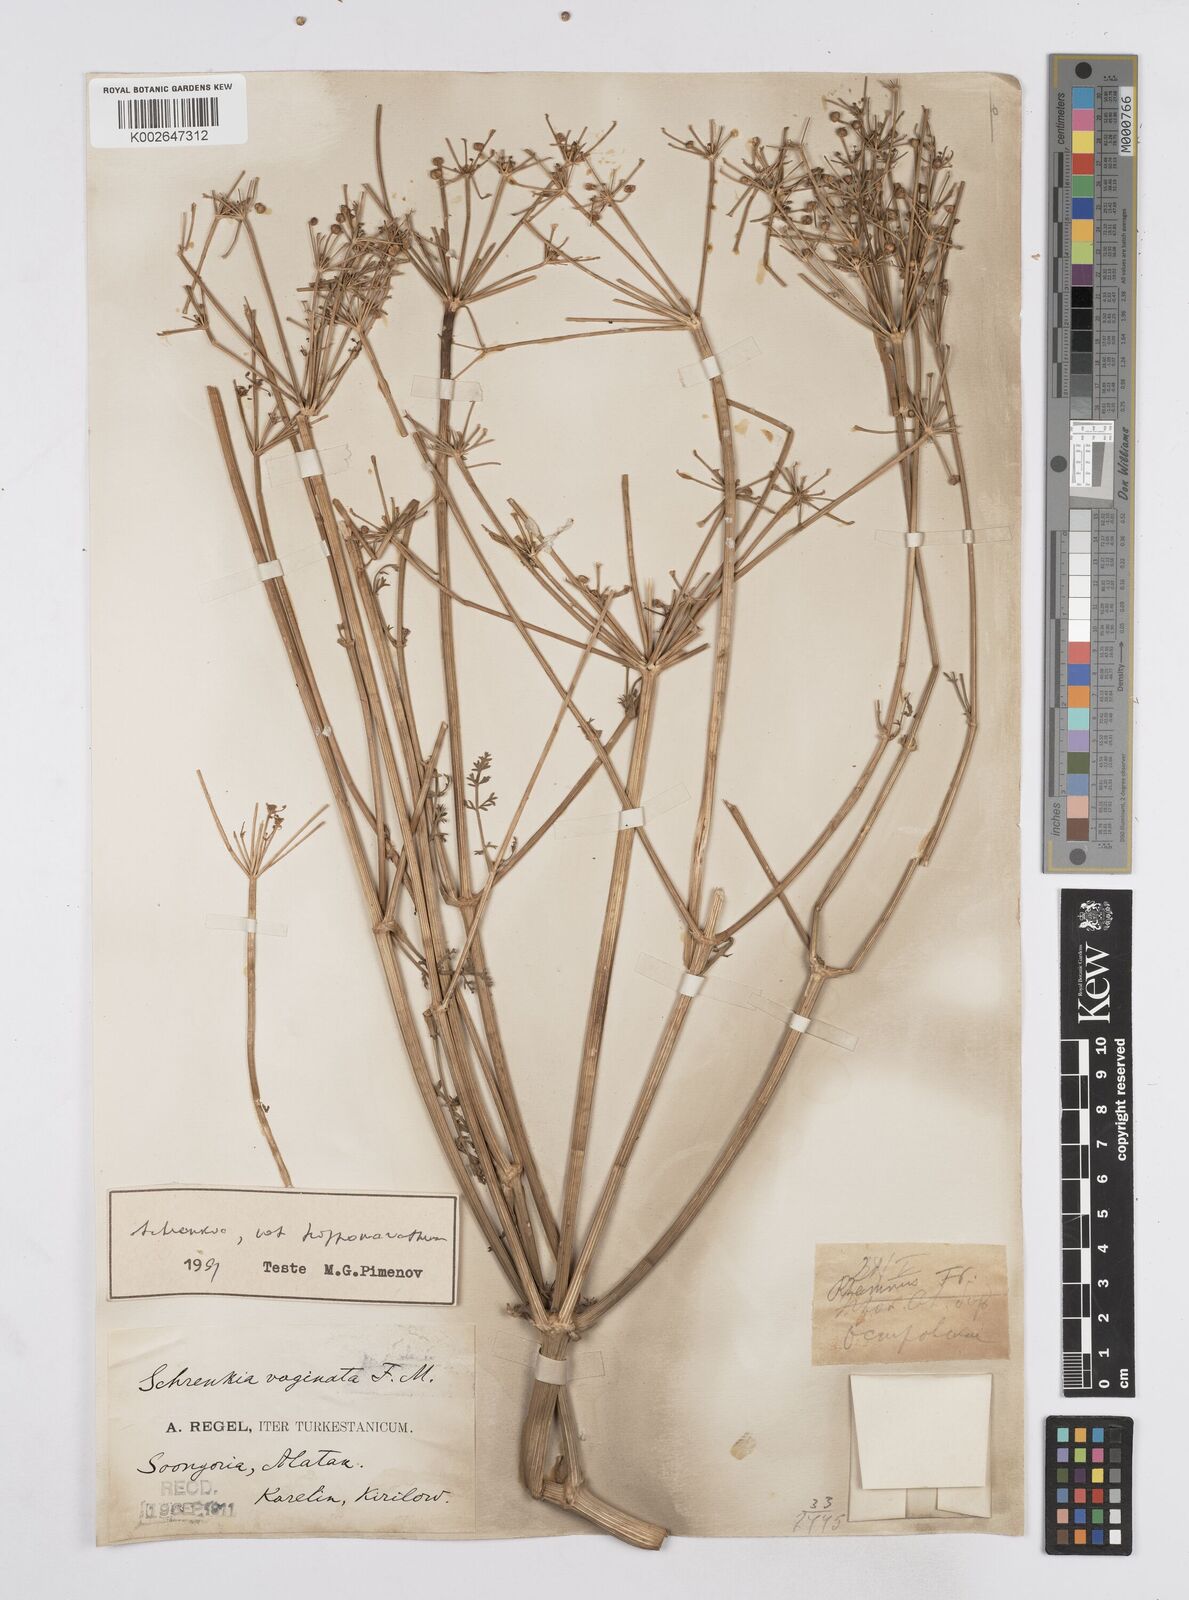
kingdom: Plantae
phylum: Tracheophyta
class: Magnoliopsida
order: Apiales
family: Apiaceae
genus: Schrenkia
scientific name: Schrenkia vaginata
